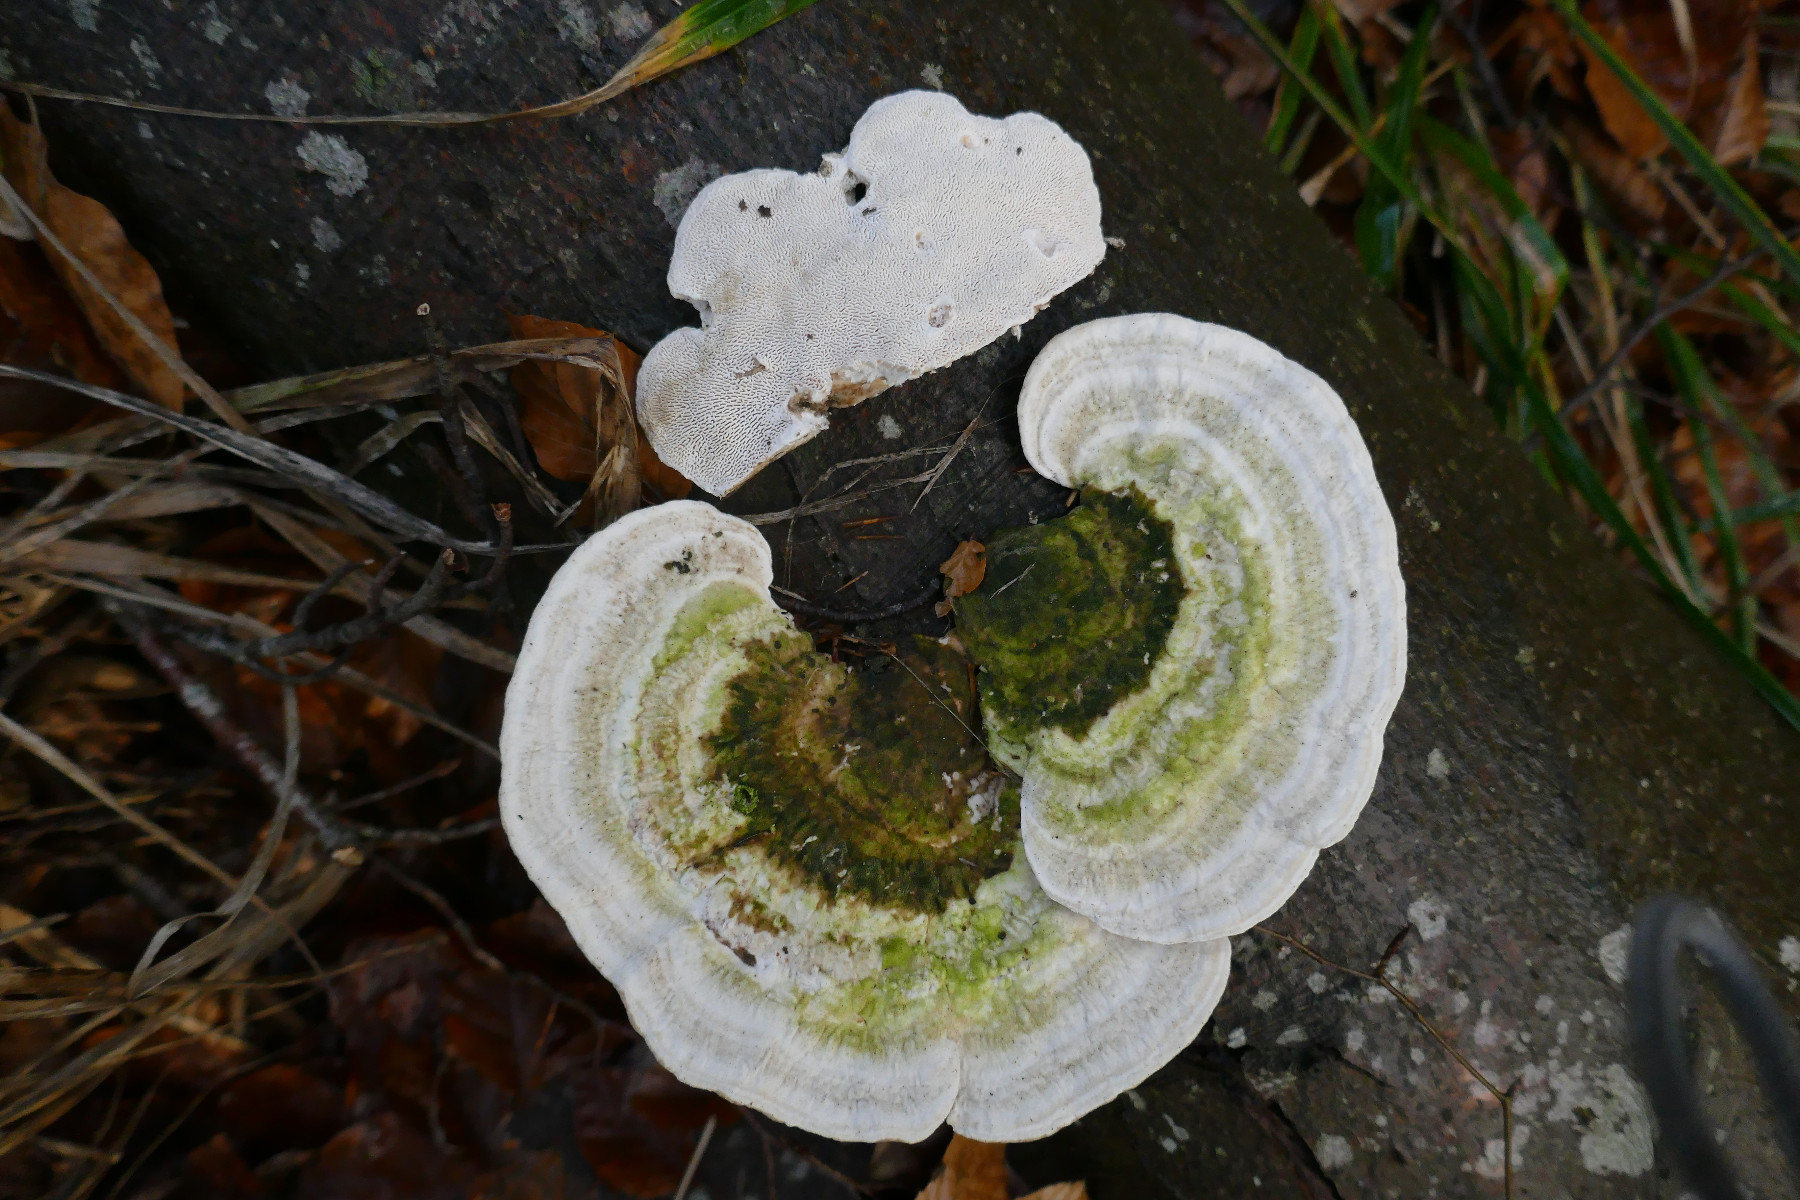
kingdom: Fungi
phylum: Basidiomycota
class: Agaricomycetes
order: Polyporales
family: Polyporaceae
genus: Trametes
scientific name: Trametes gibbosa
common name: puklet læderporesvamp
